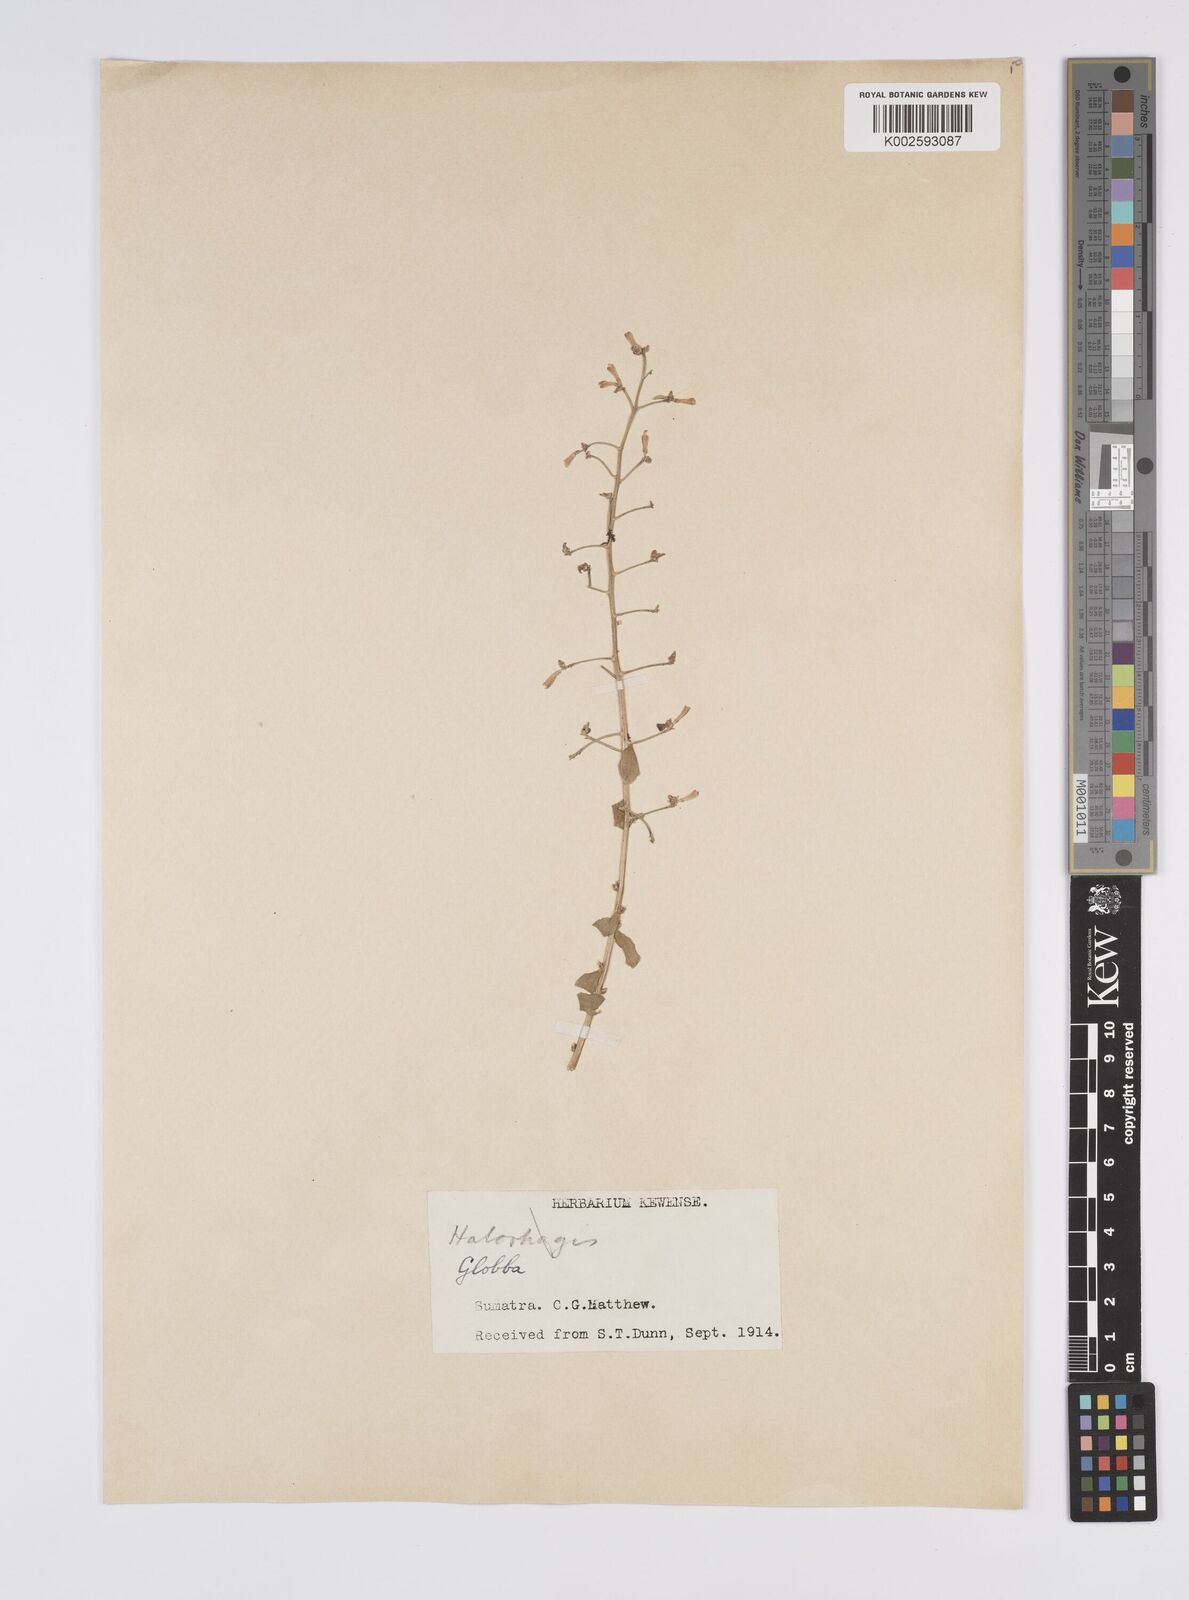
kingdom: Plantae
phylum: Tracheophyta
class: Liliopsida
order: Zingiberales
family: Zingiberaceae
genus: Globba
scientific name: Globba albobracteata
